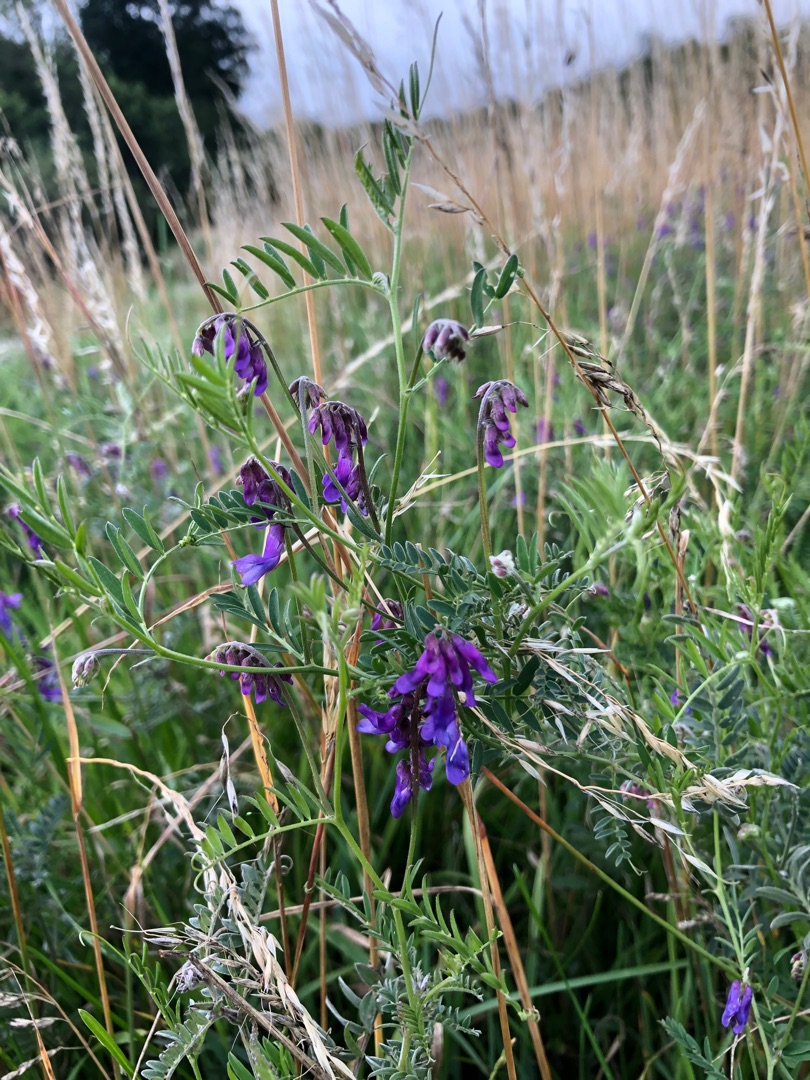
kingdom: Plantae
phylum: Tracheophyta
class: Magnoliopsida
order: Fabales
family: Fabaceae
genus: Vicia
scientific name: Vicia cracca
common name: Muse-vikke
